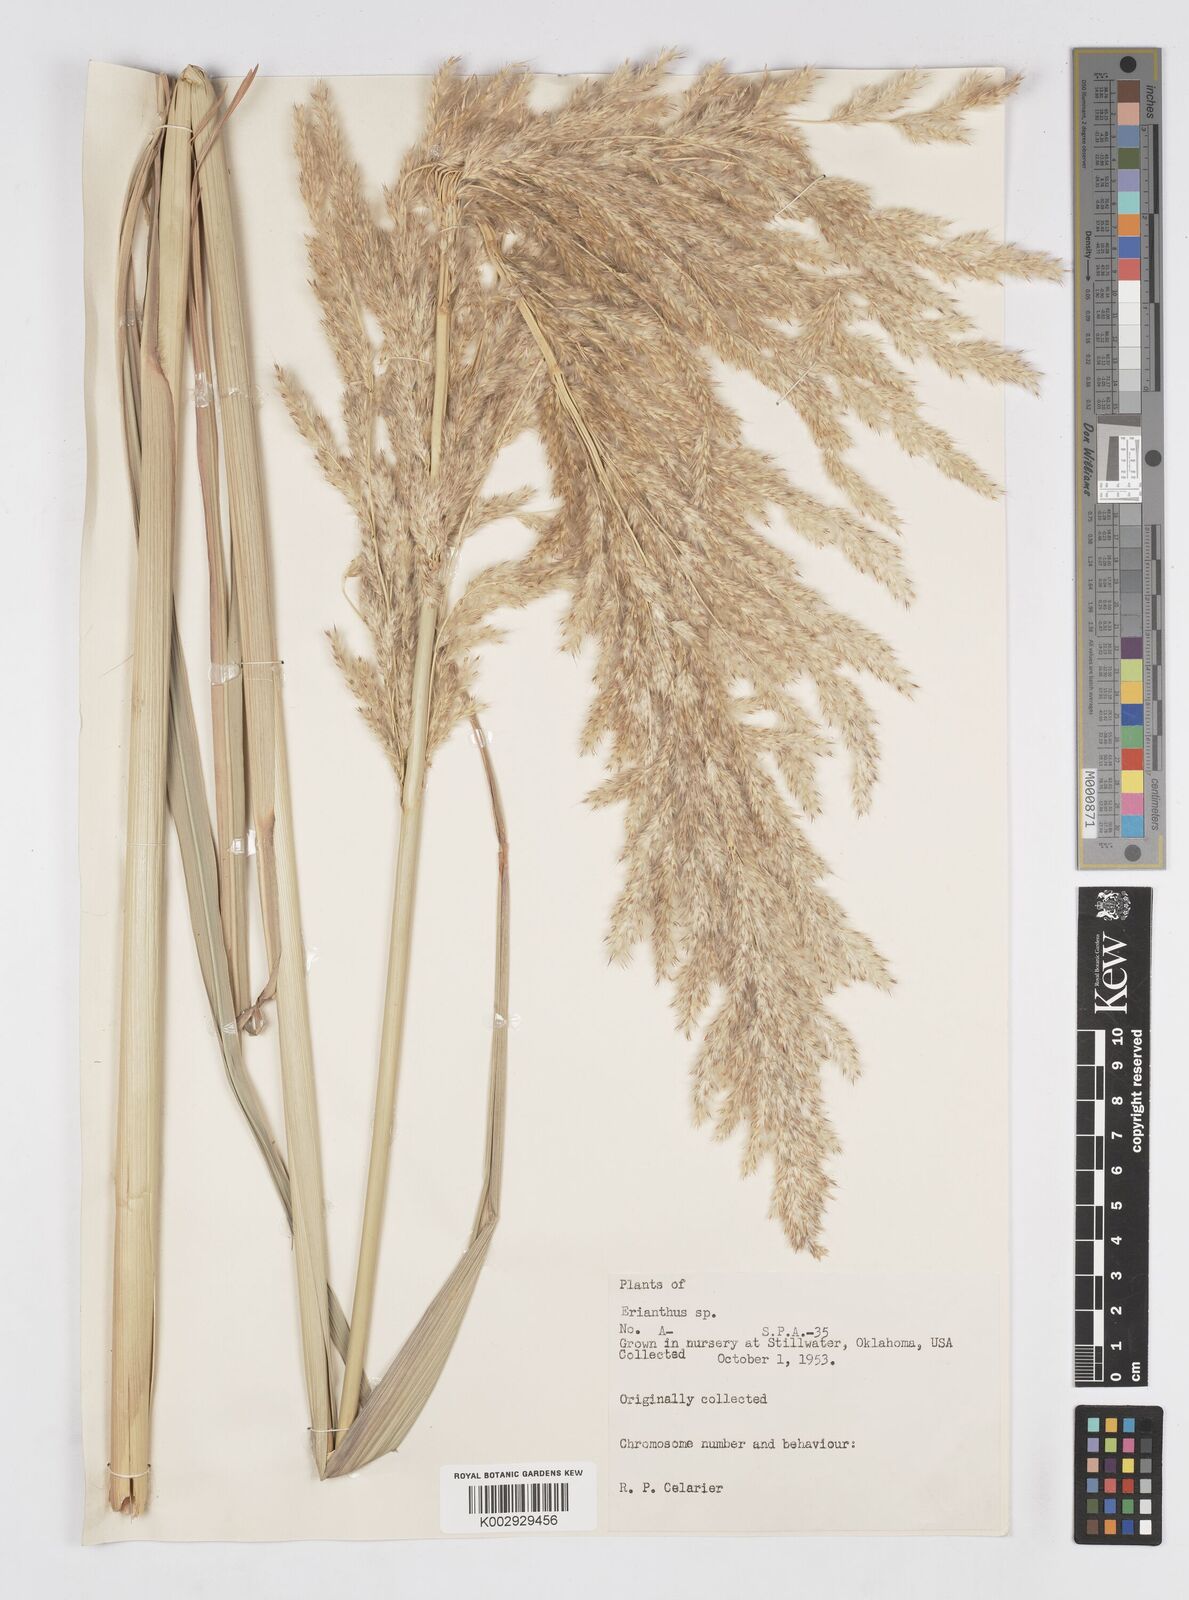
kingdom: Plantae
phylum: Tracheophyta
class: Liliopsida
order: Poales
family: Poaceae
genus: Saccharum
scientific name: Saccharum
